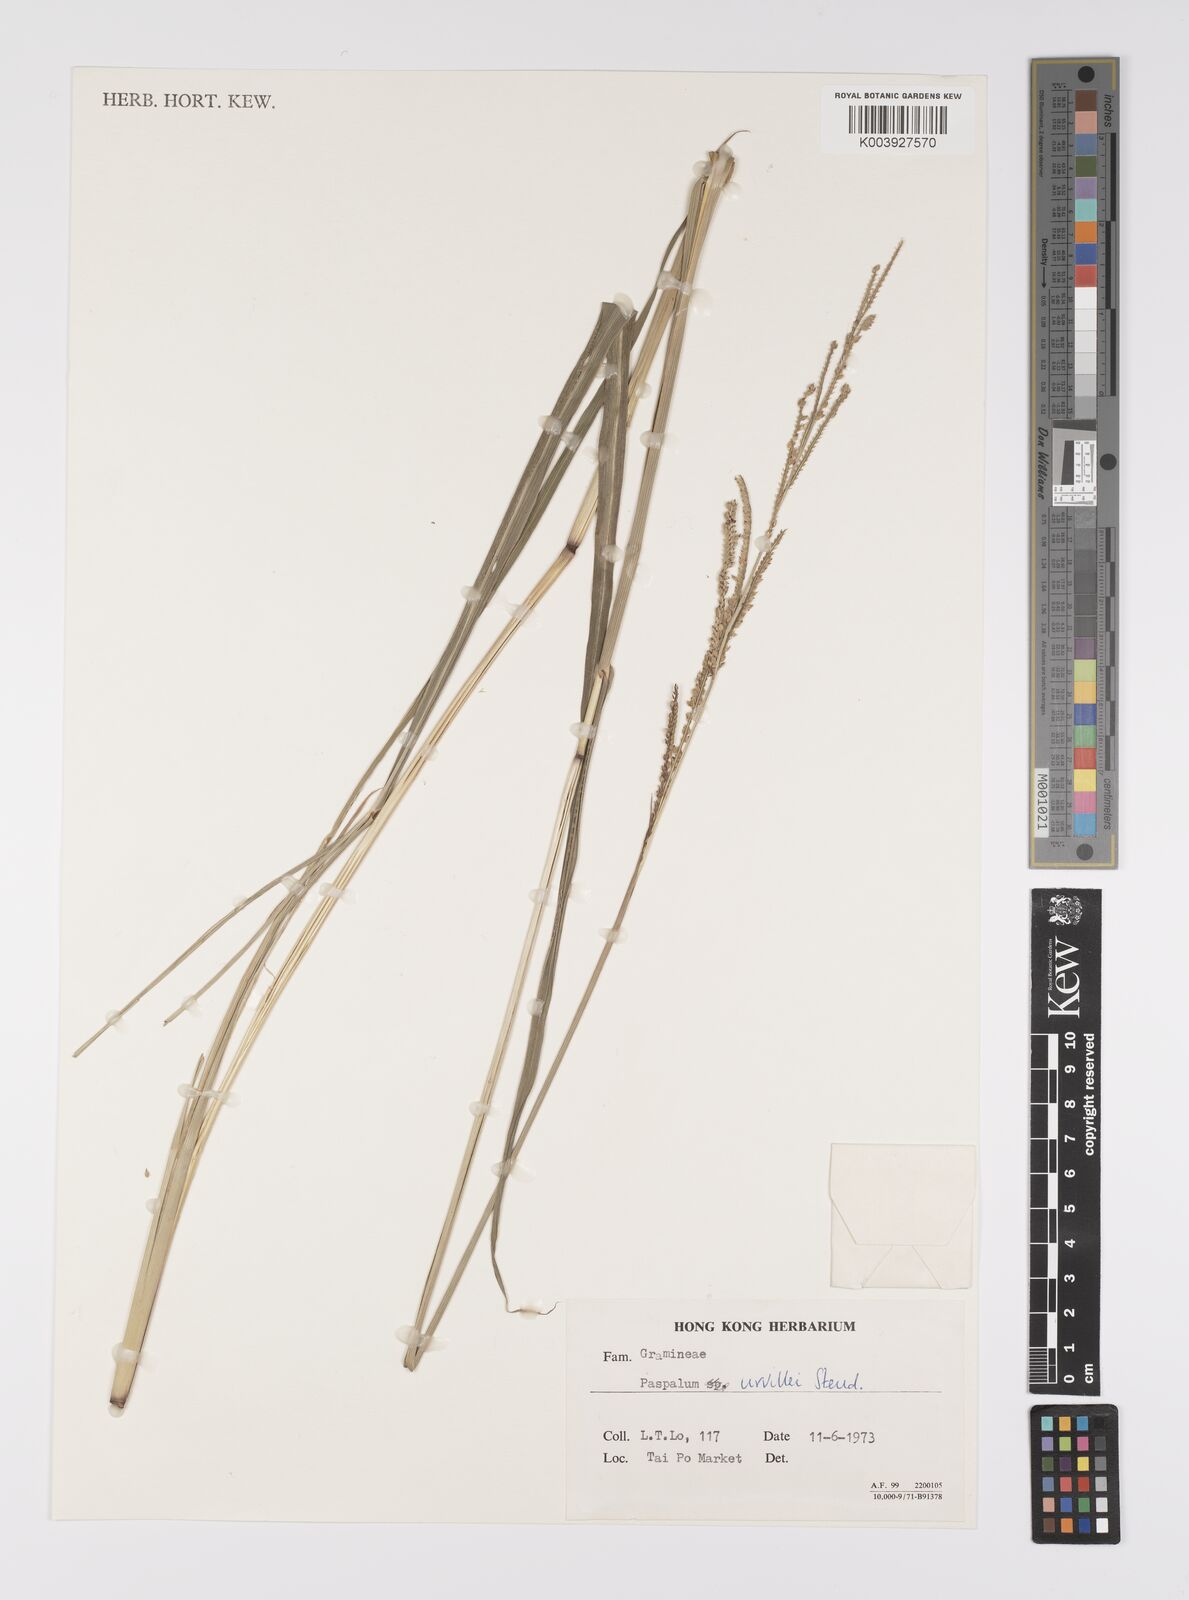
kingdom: Plantae
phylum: Tracheophyta
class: Liliopsida
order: Poales
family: Poaceae
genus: Paspalum
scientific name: Paspalum urvillei
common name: Vasey's grass
